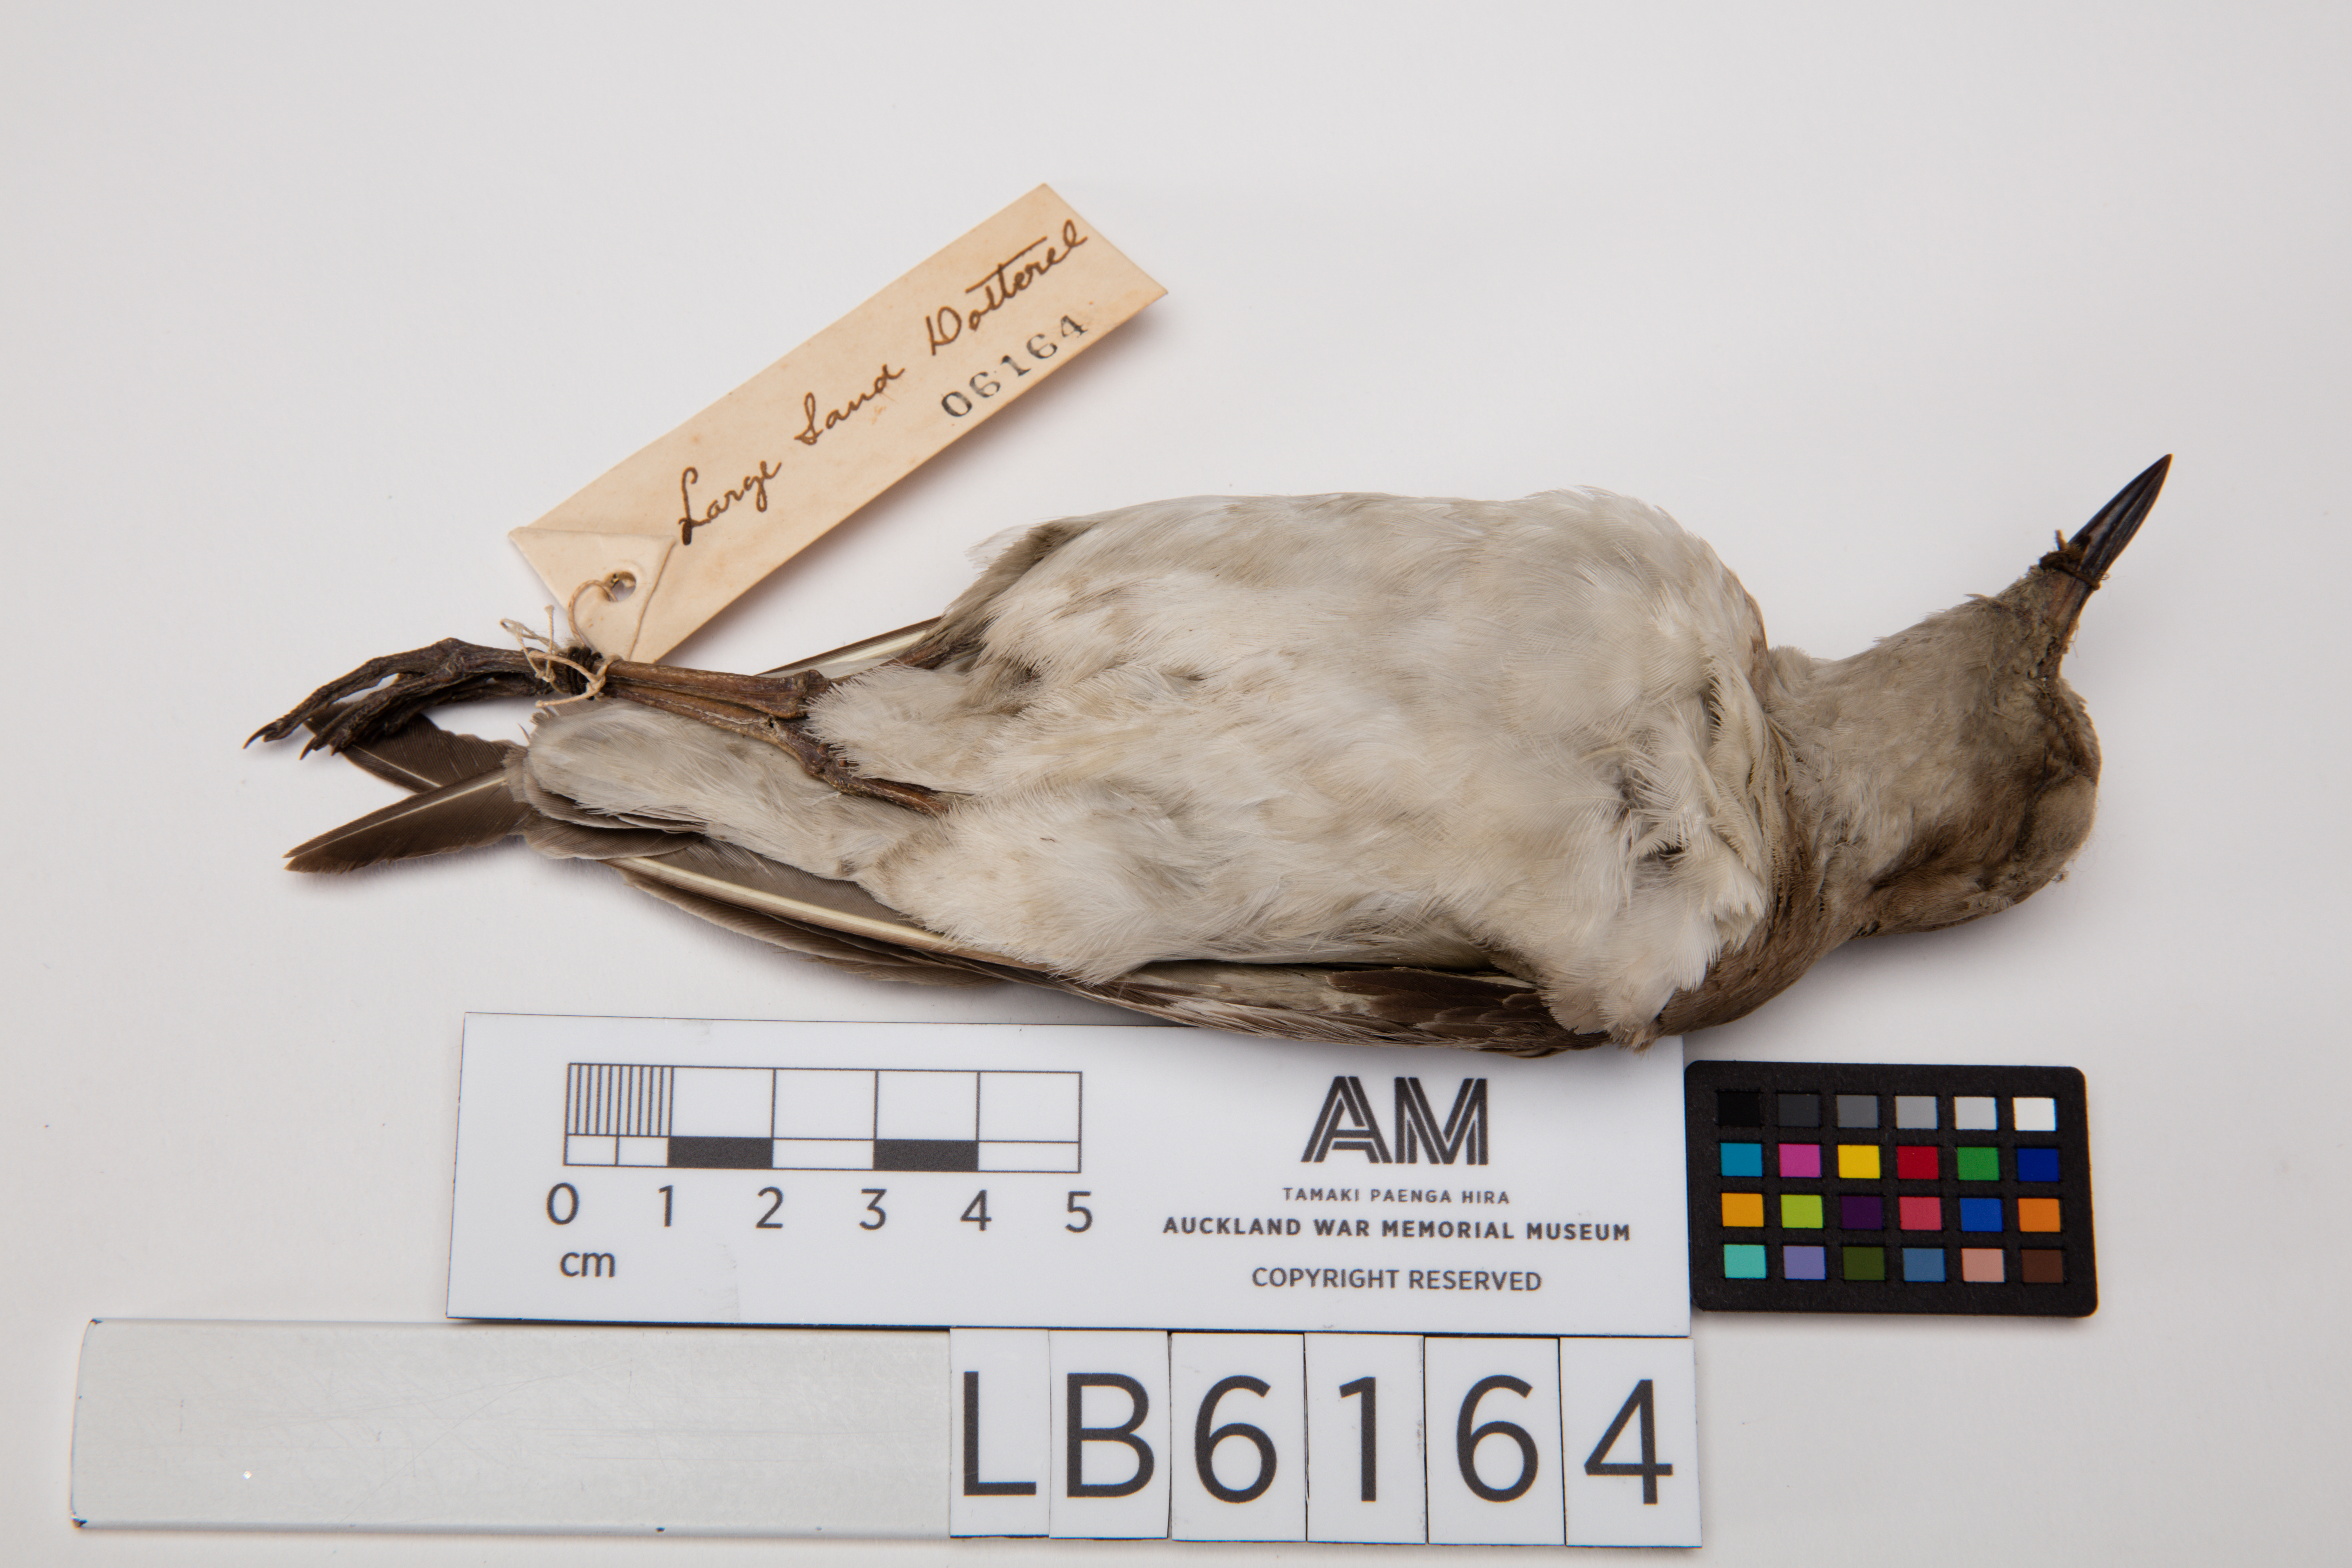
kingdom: Animalia
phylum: Chordata
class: Aves
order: Charadriiformes
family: Charadriidae
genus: Charadrius
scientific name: Charadrius leschenaultii
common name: Greater sand plover
